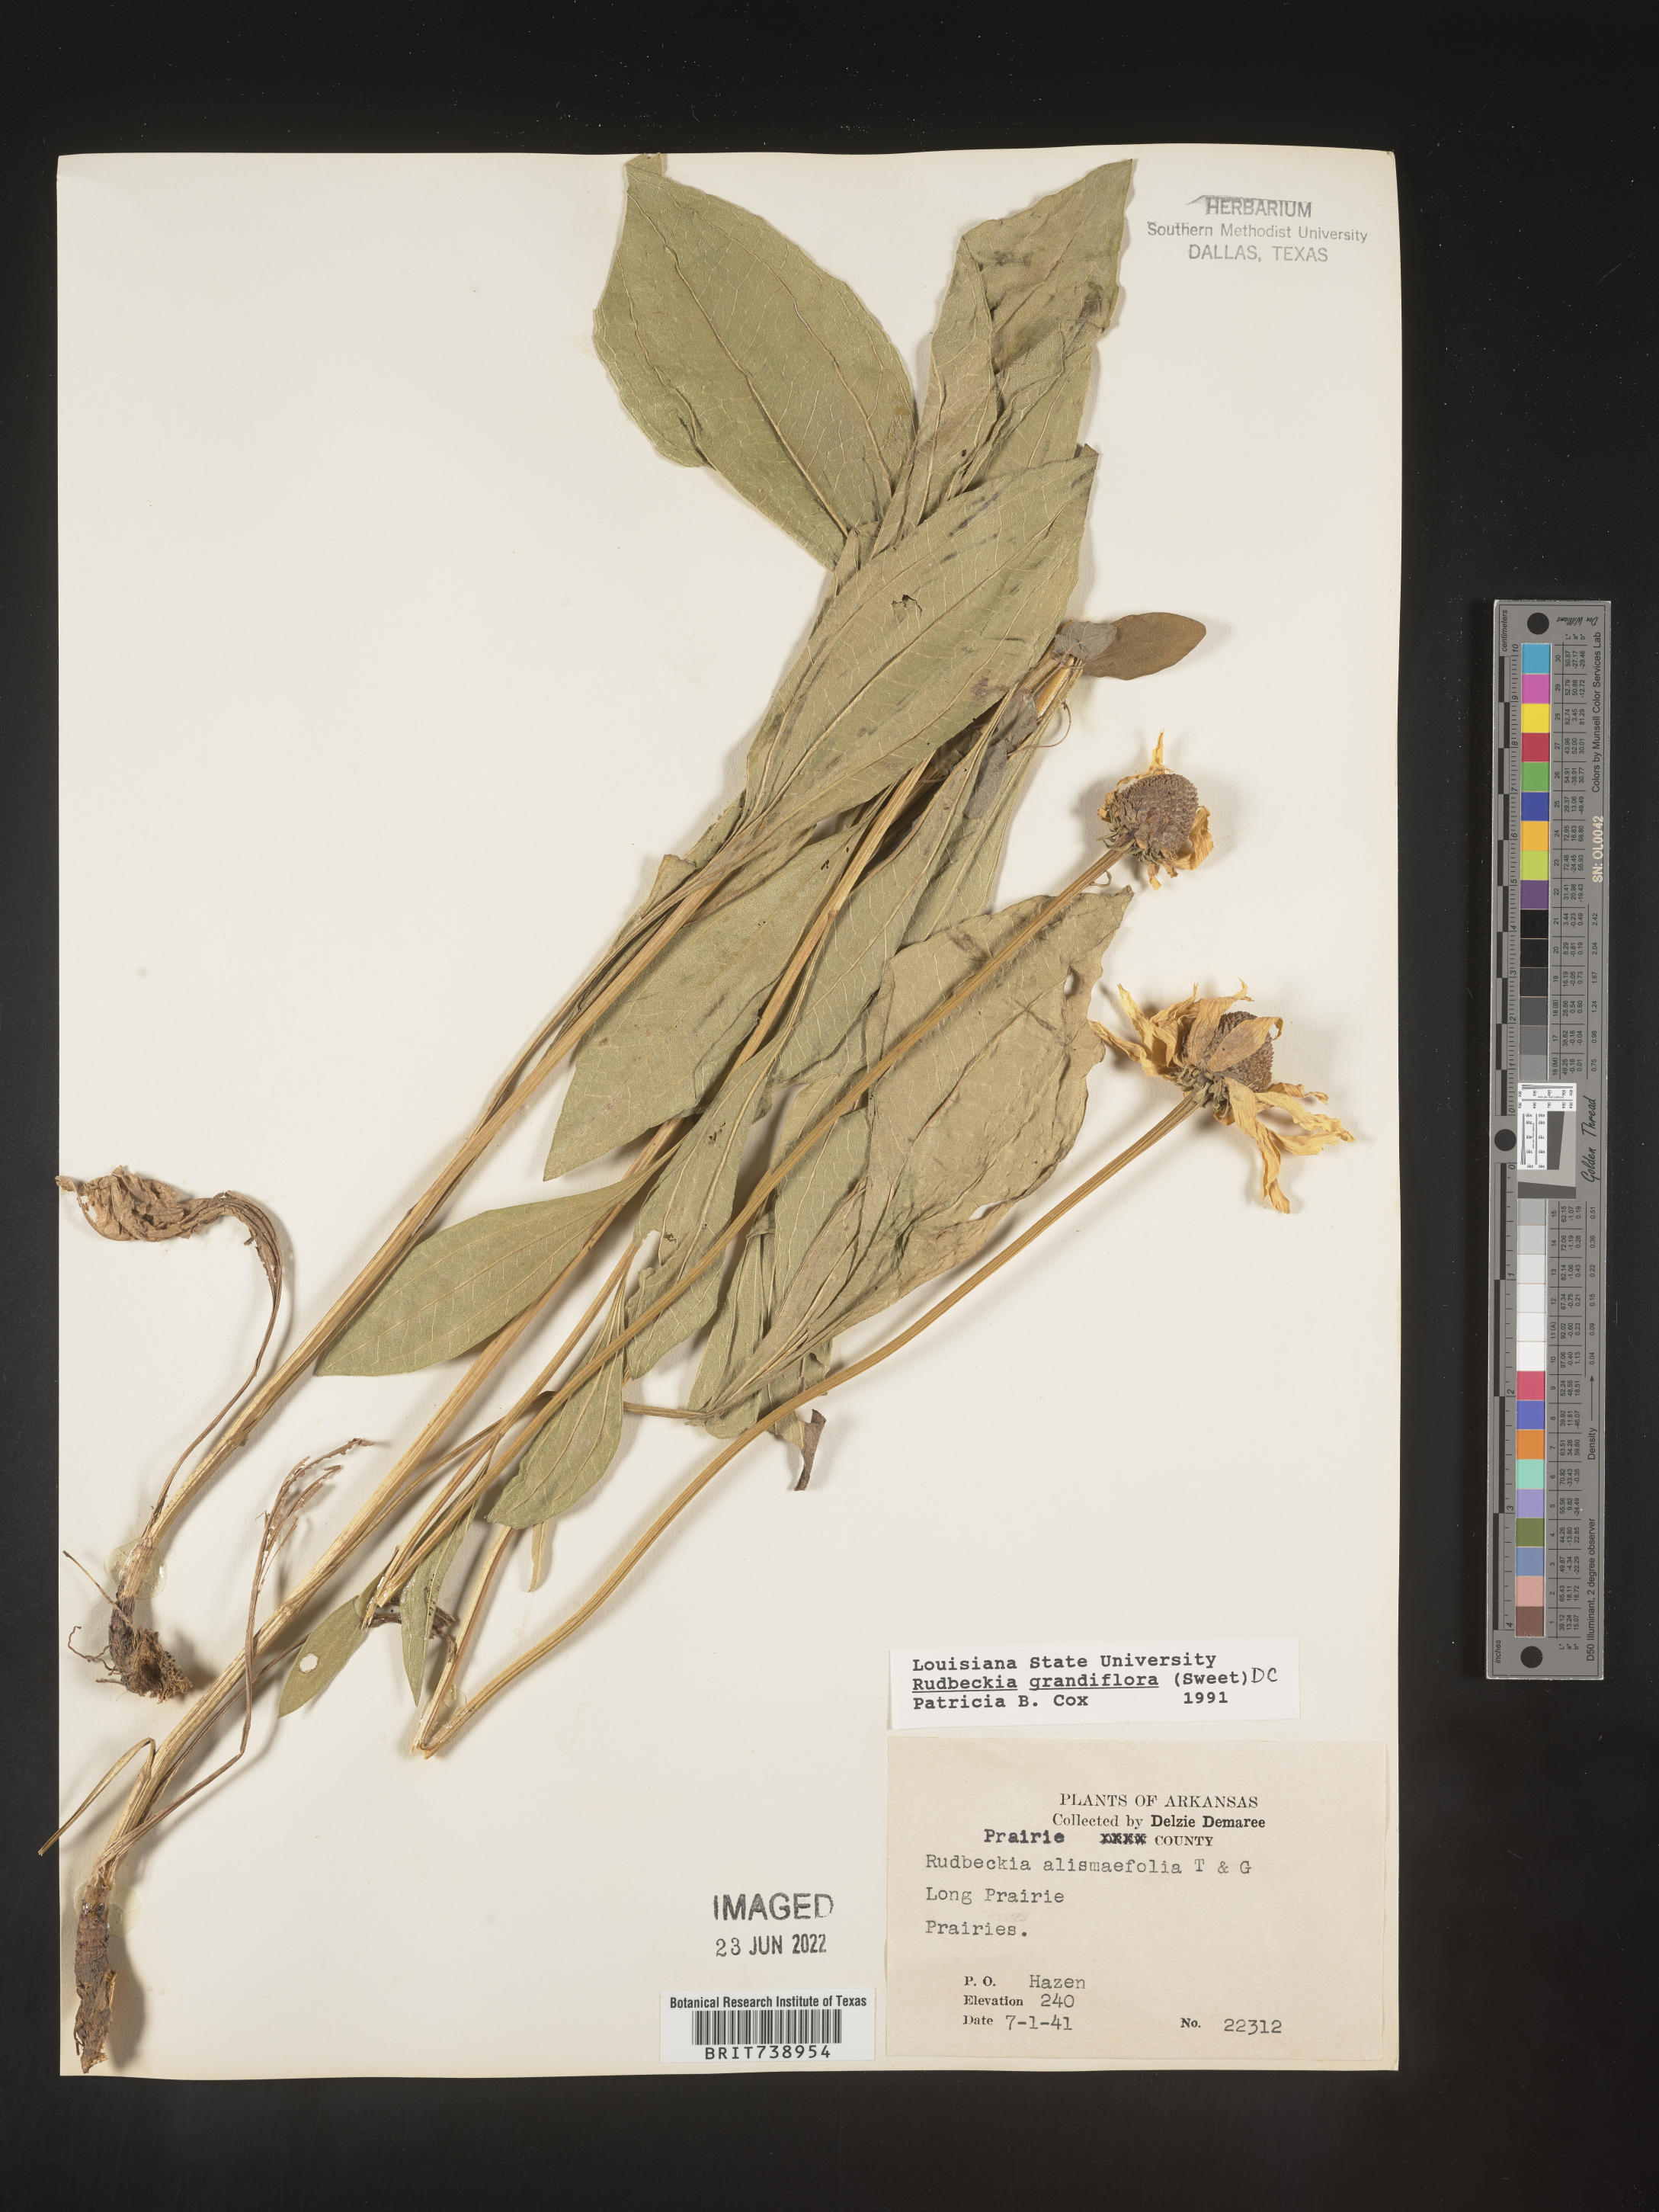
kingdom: Plantae
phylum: Tracheophyta
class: Magnoliopsida
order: Asterales
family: Asteraceae
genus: Rudbeckia
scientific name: Rudbeckia grandiflora
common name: Large-flowered coneflower
